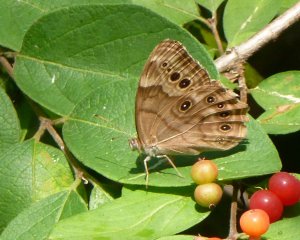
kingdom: Animalia
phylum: Arthropoda
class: Insecta
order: Lepidoptera
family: Nymphalidae
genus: Lethe
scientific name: Lethe anthedon
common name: Northern Pearly-Eye
